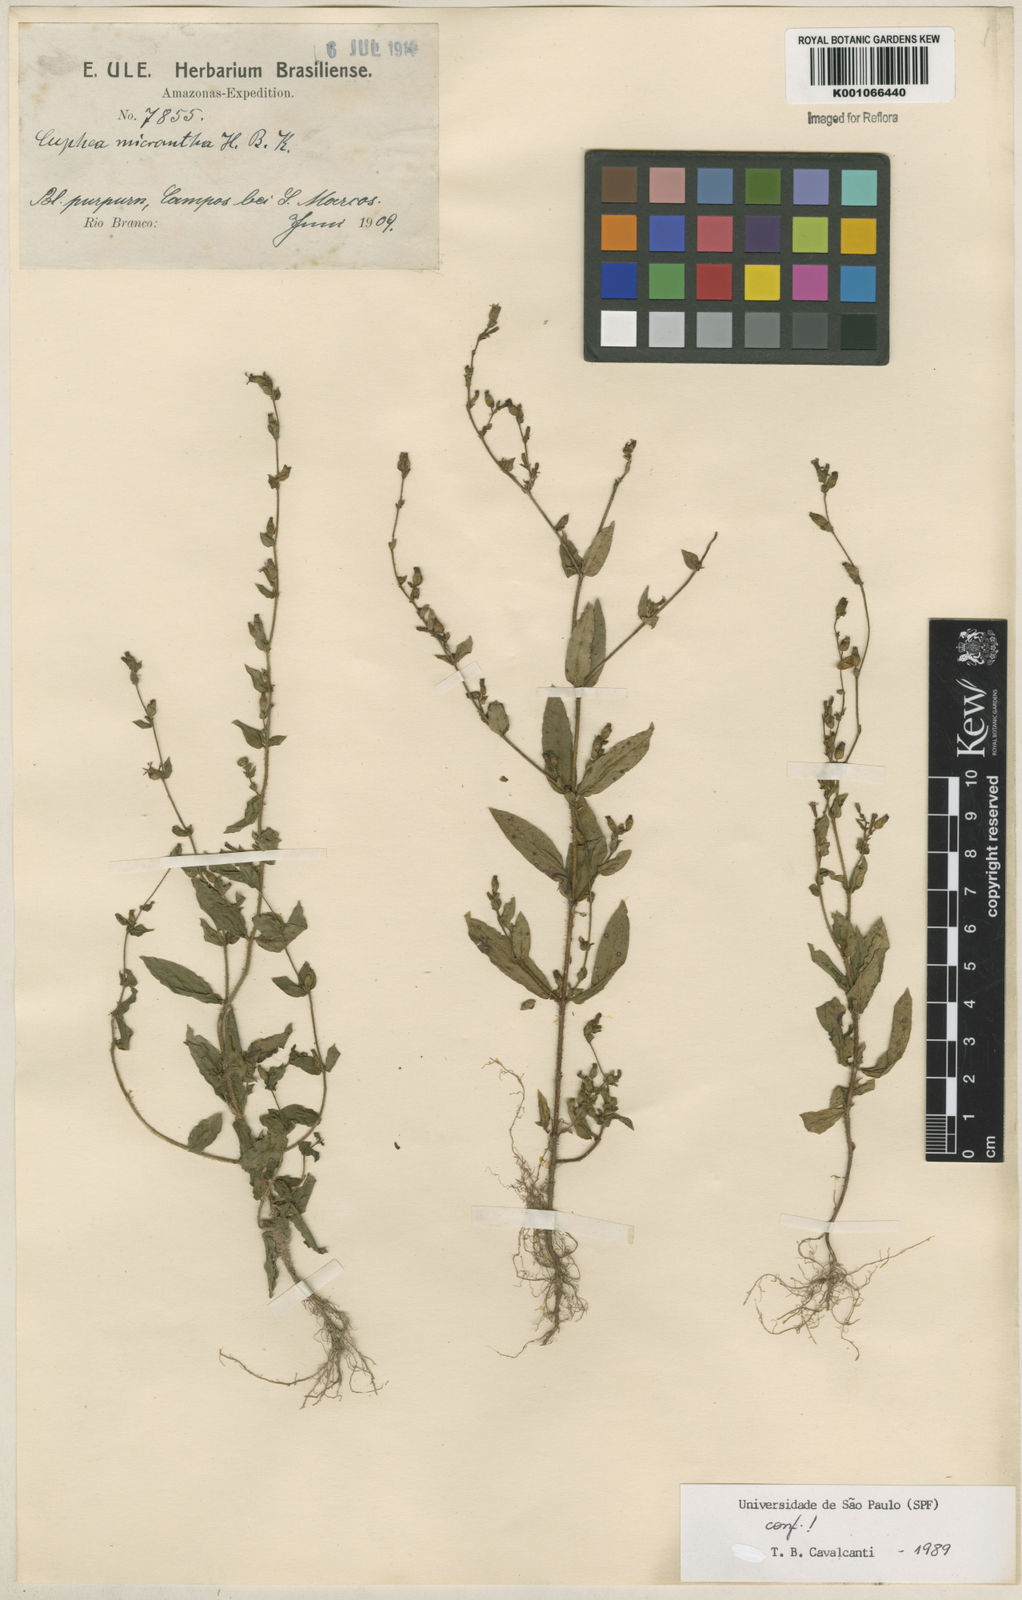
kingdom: Plantae
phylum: Tracheophyta
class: Magnoliopsida
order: Myrtales
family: Lythraceae
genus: Cuphea
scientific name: Cuphea micrantha
